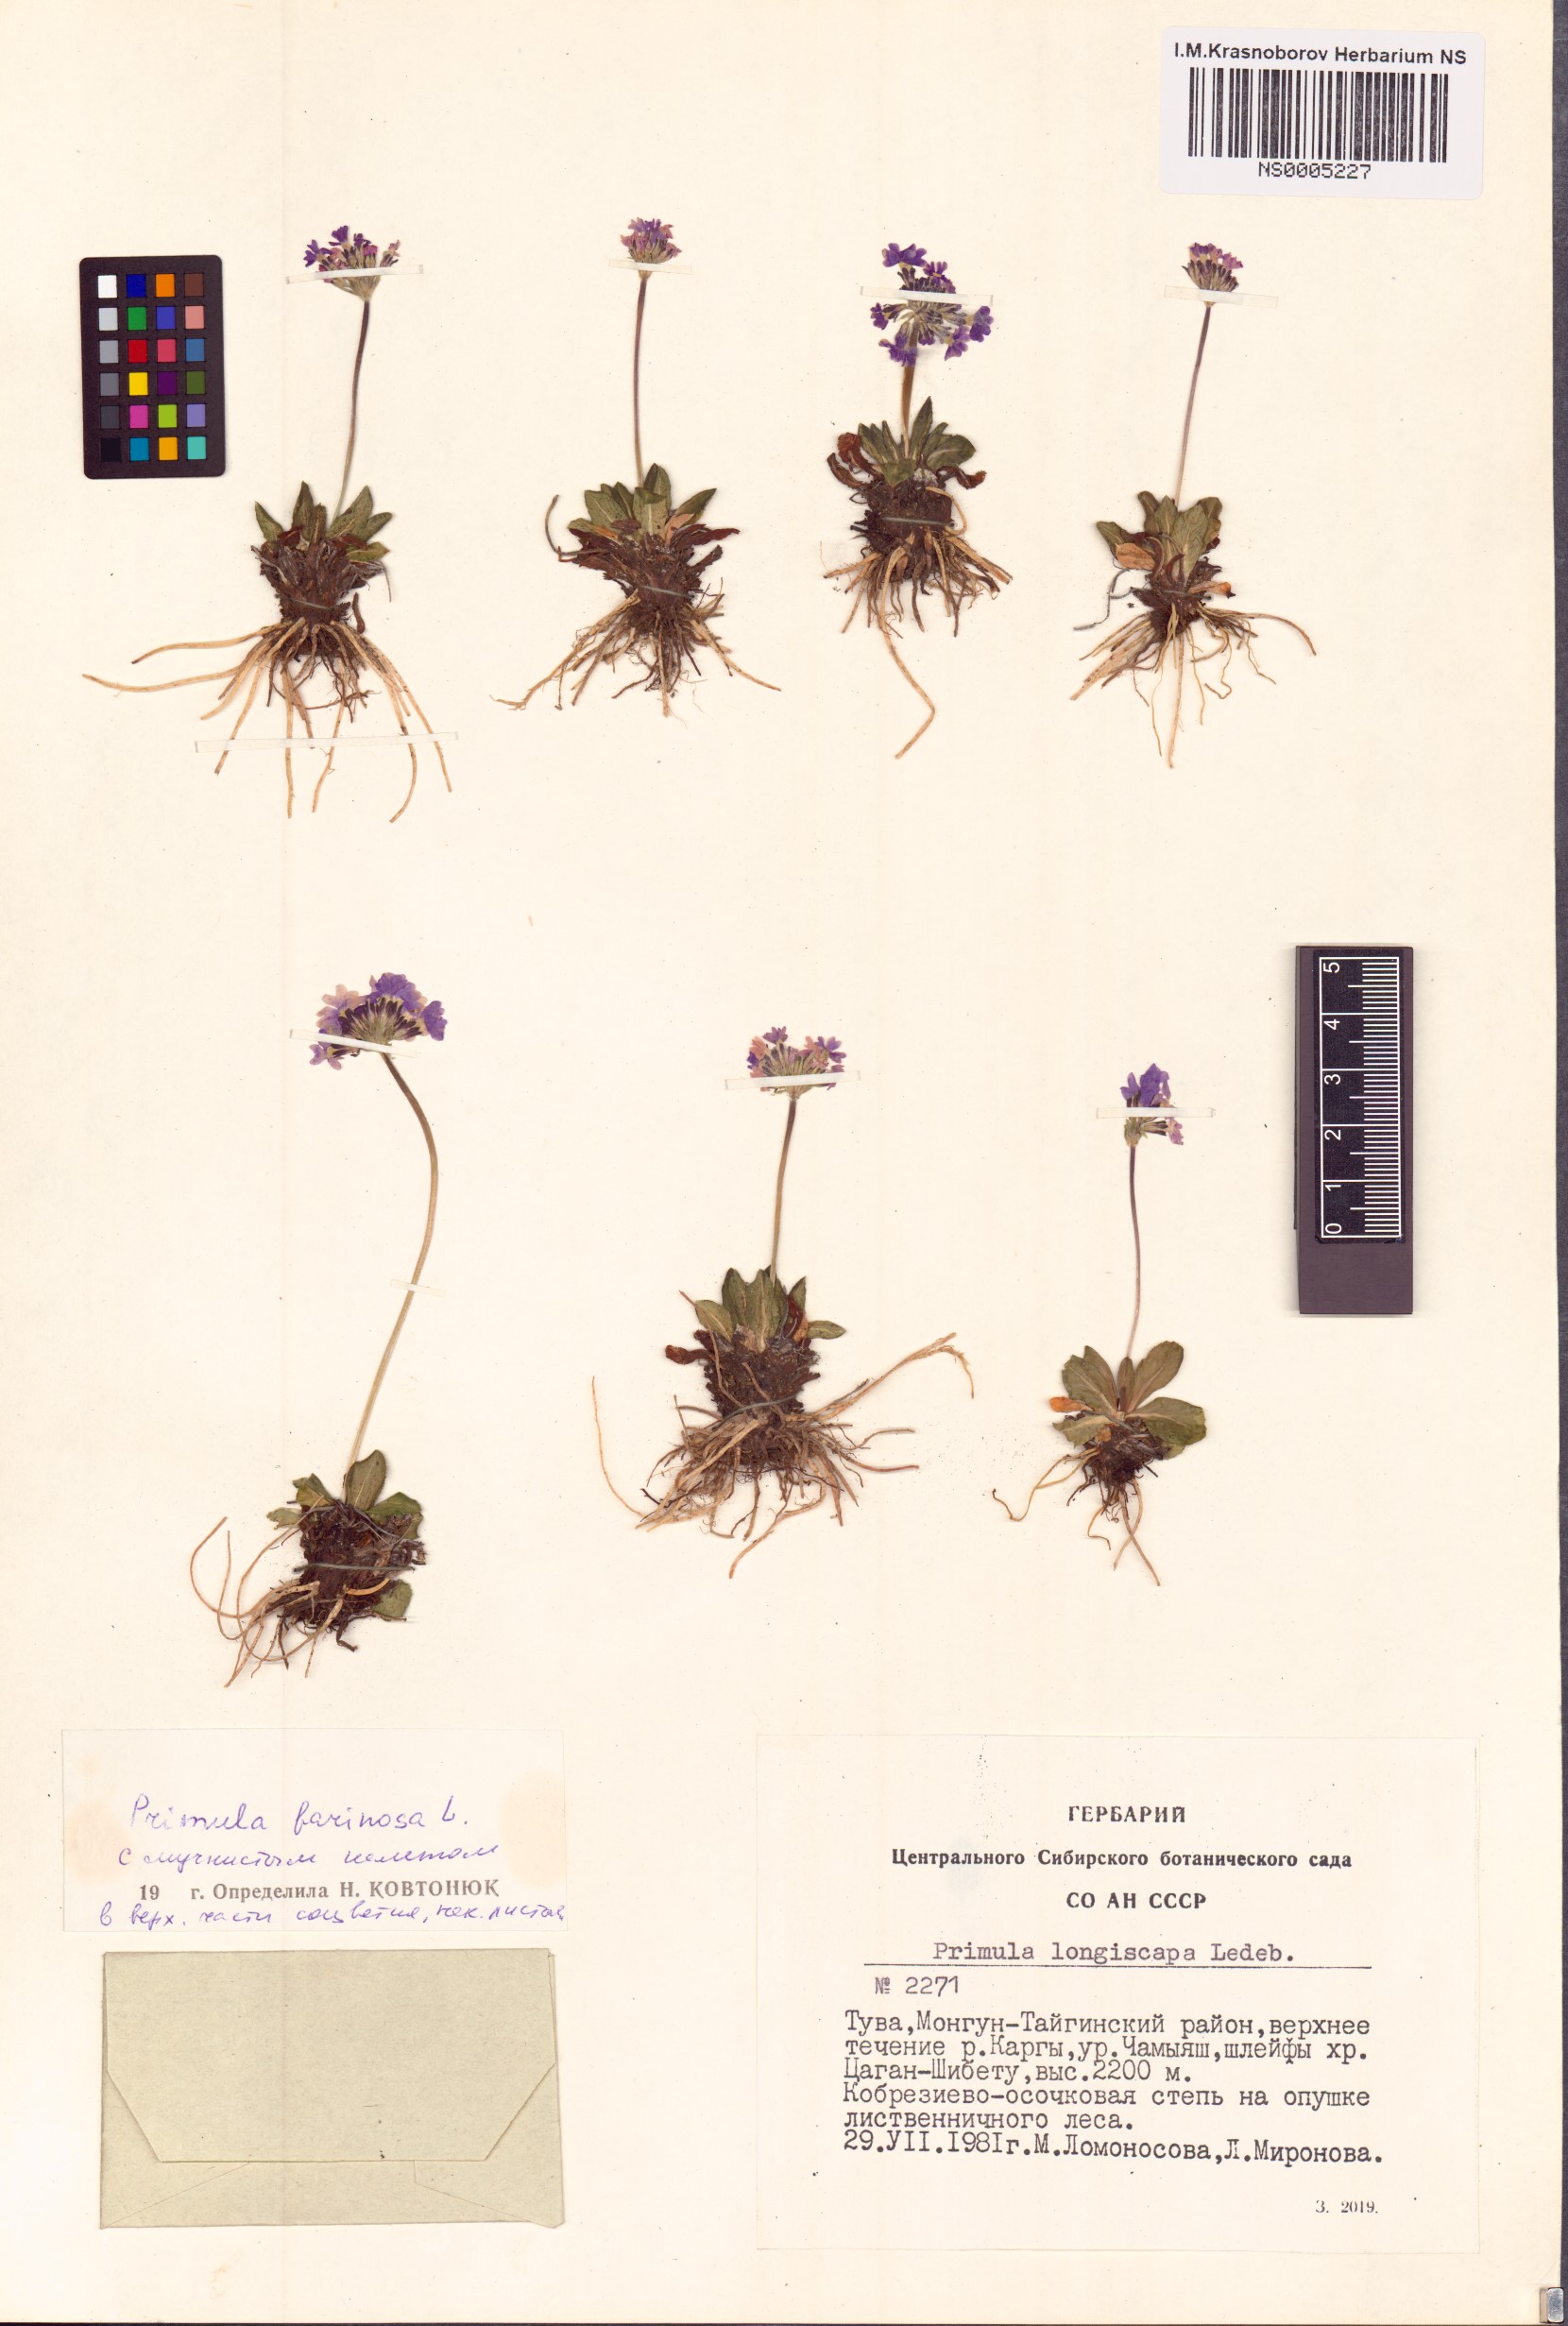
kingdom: Plantae
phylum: Tracheophyta
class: Magnoliopsida
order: Ericales
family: Primulaceae
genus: Primula
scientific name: Primula farinosa
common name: Bird's-eye primrose
